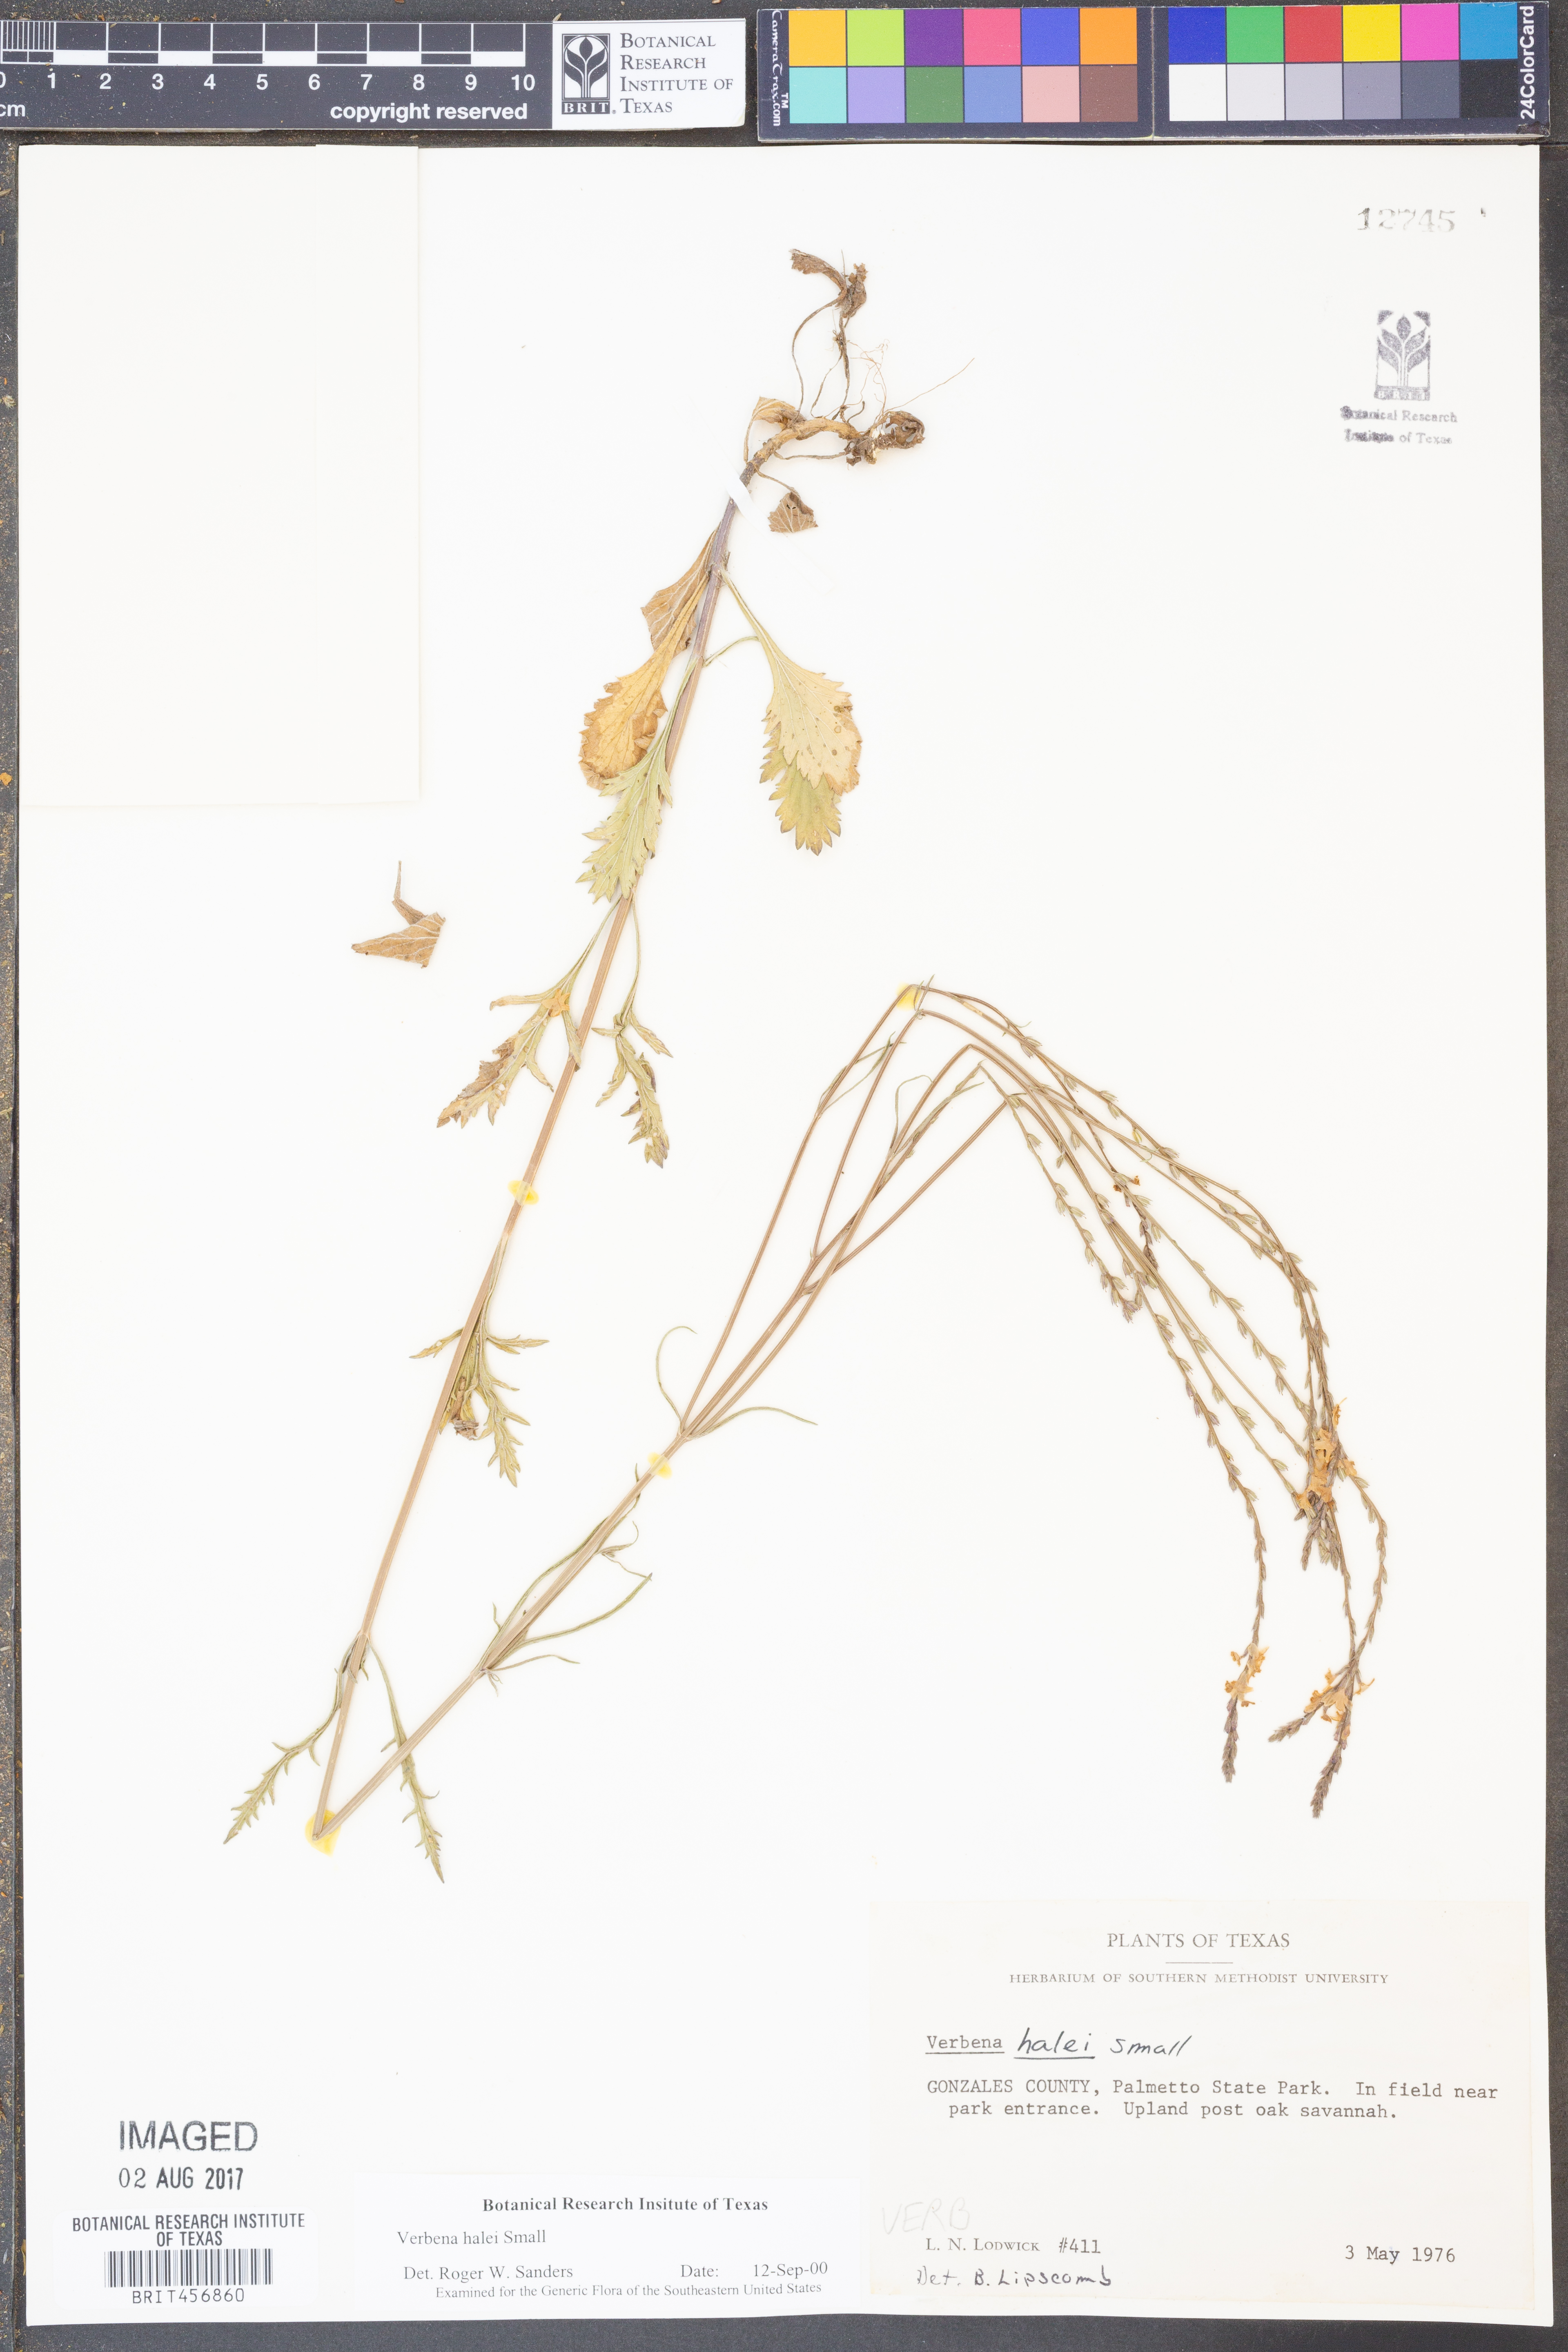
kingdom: Plantae
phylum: Tracheophyta
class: Magnoliopsida
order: Lamiales
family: Verbenaceae
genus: Verbena
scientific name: Verbena halei
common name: Texas vervain
